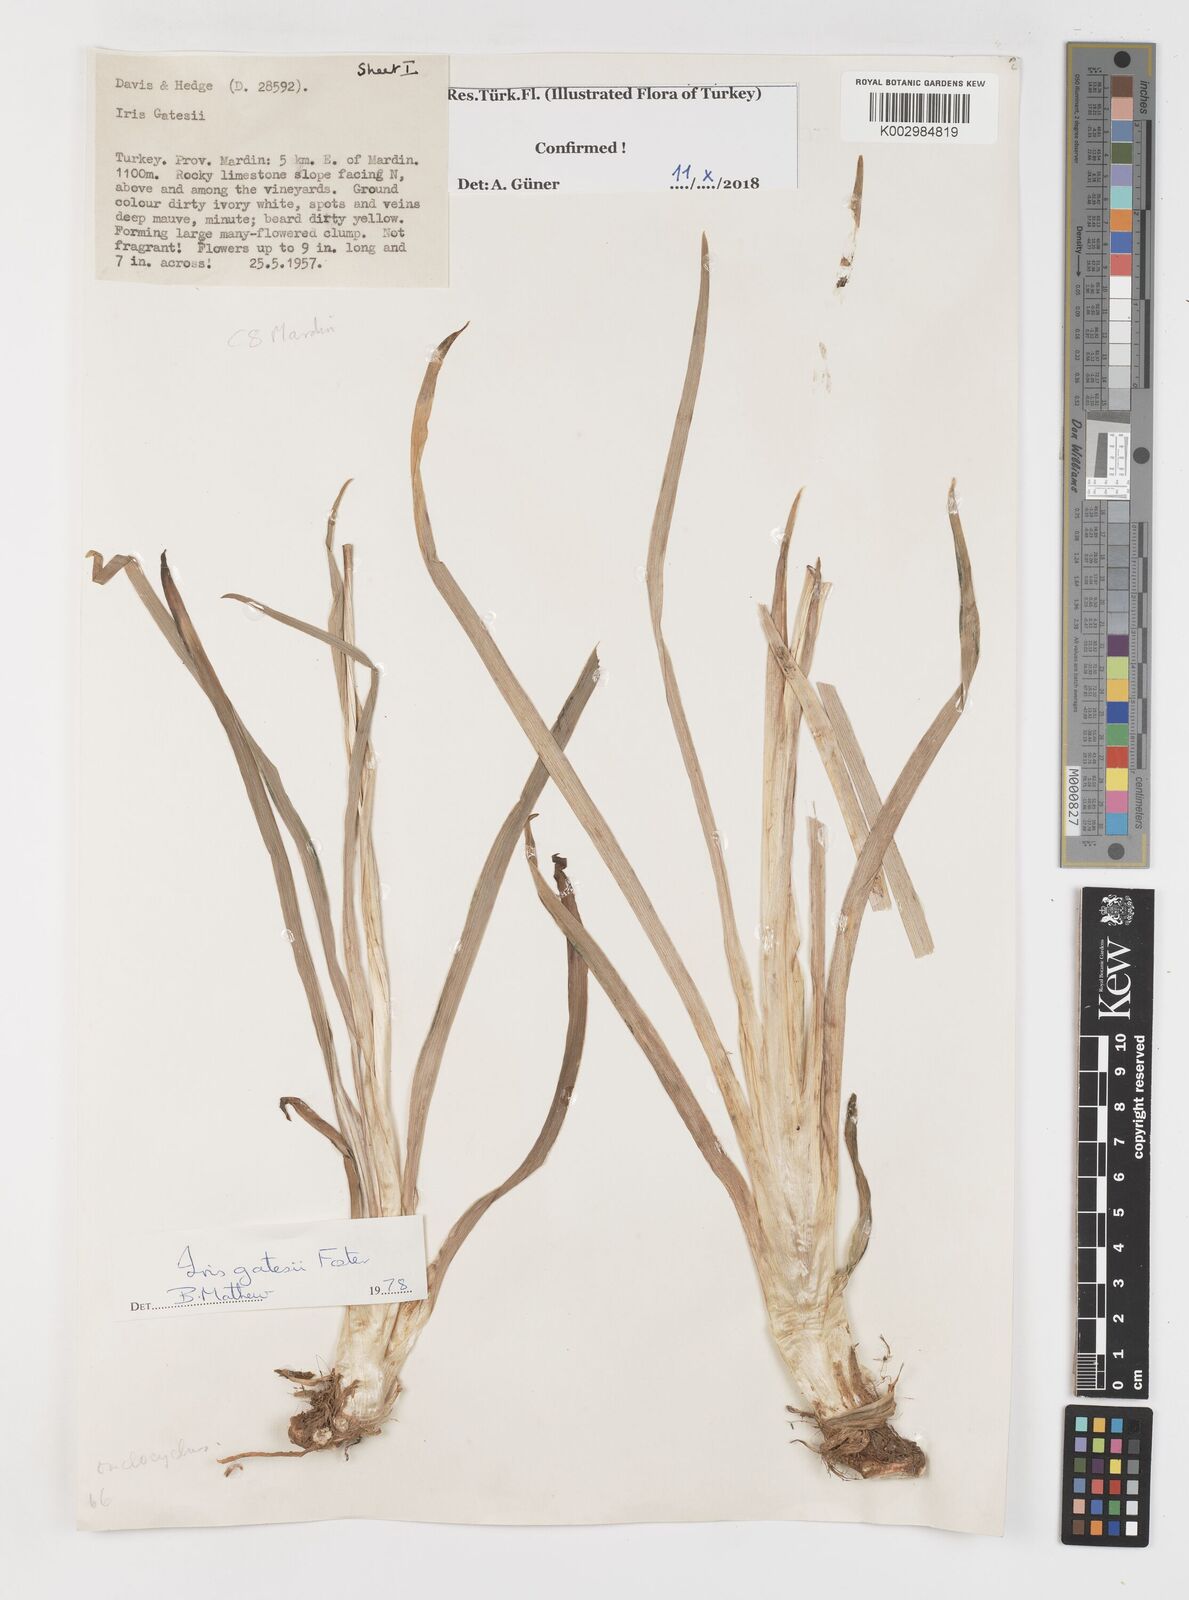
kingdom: Plantae
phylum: Tracheophyta
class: Liliopsida
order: Asparagales
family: Iridaceae
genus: Iris
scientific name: Iris gatesii
